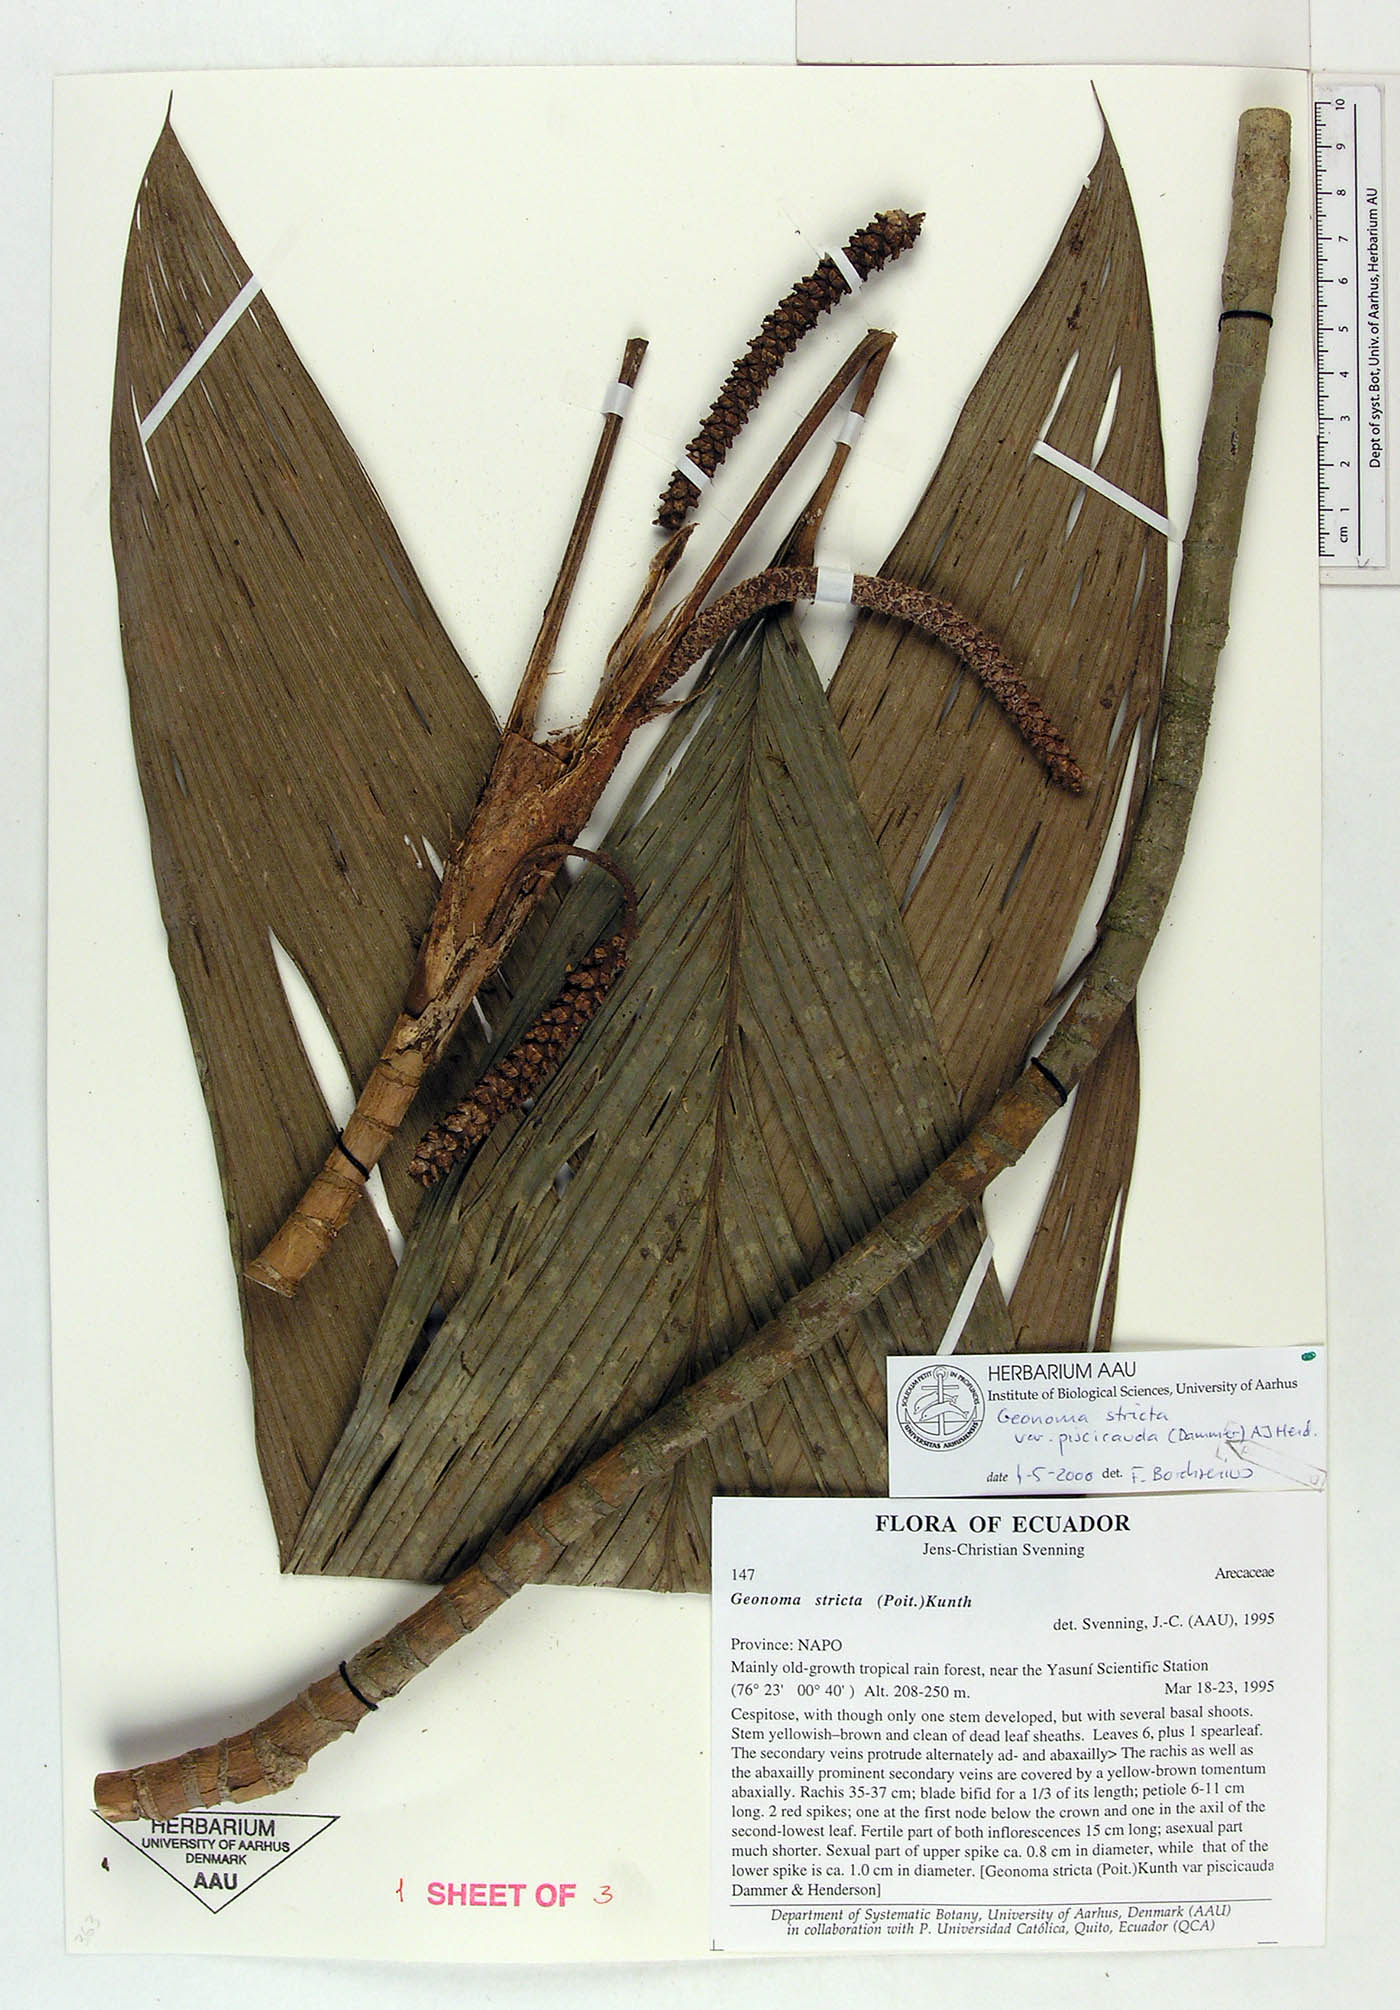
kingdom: Plantae
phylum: Tracheophyta
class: Liliopsida
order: Arecales
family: Arecaceae
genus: Geonoma
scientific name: Geonoma stricta
